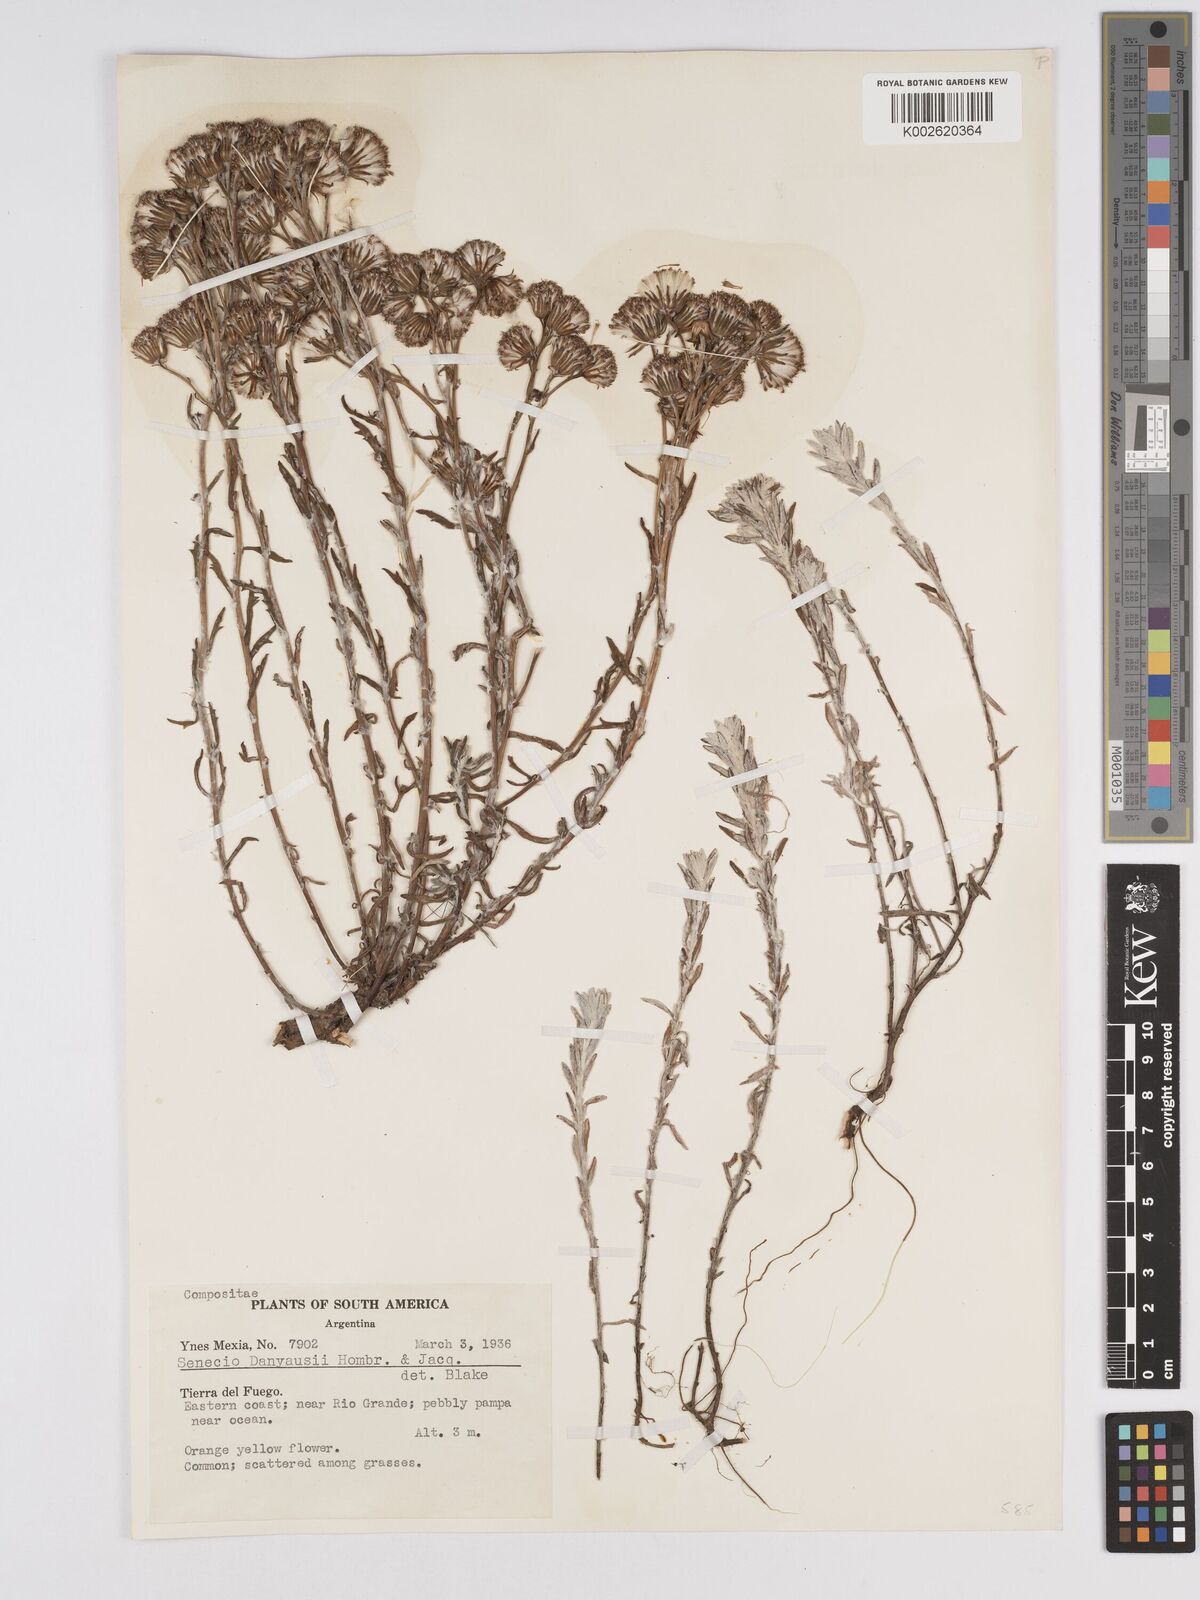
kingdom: Plantae
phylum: Tracheophyta
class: Magnoliopsida
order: Asterales
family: Asteraceae
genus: Senecio
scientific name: Senecio patagonicus
